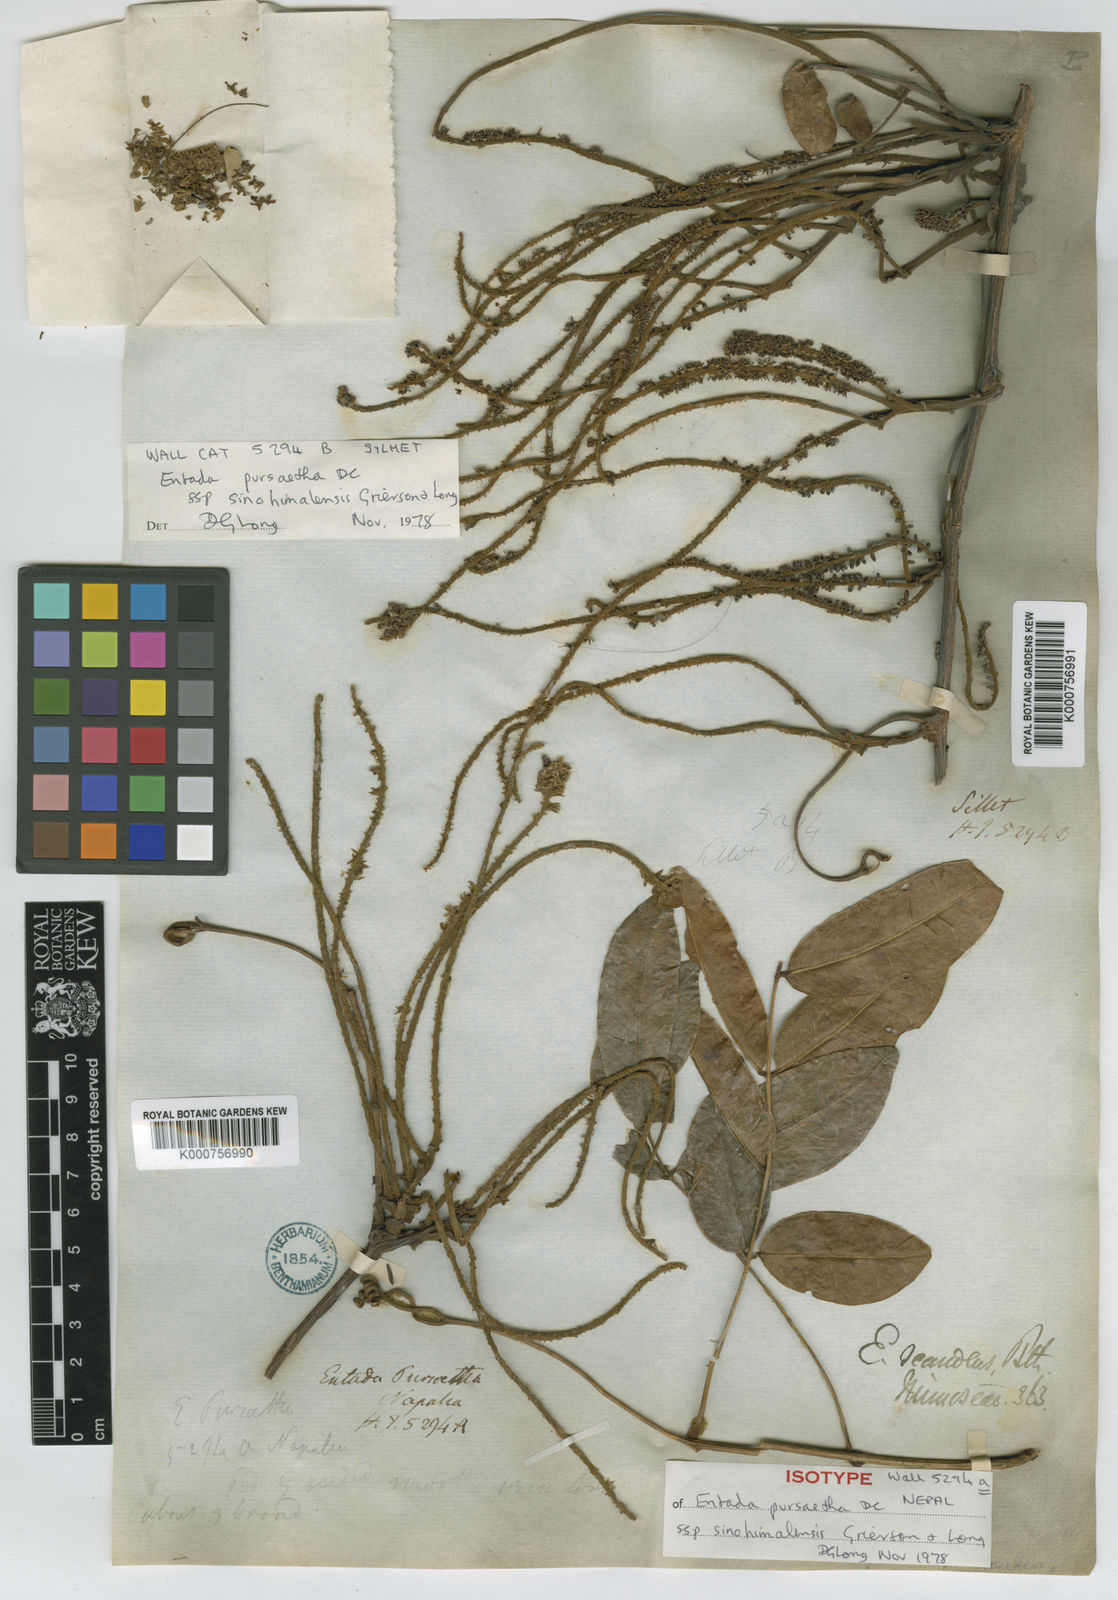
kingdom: Plantae
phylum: Tracheophyta
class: Magnoliopsida
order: Fabales
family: Fabaceae
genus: Entada
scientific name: Entada rheedei
